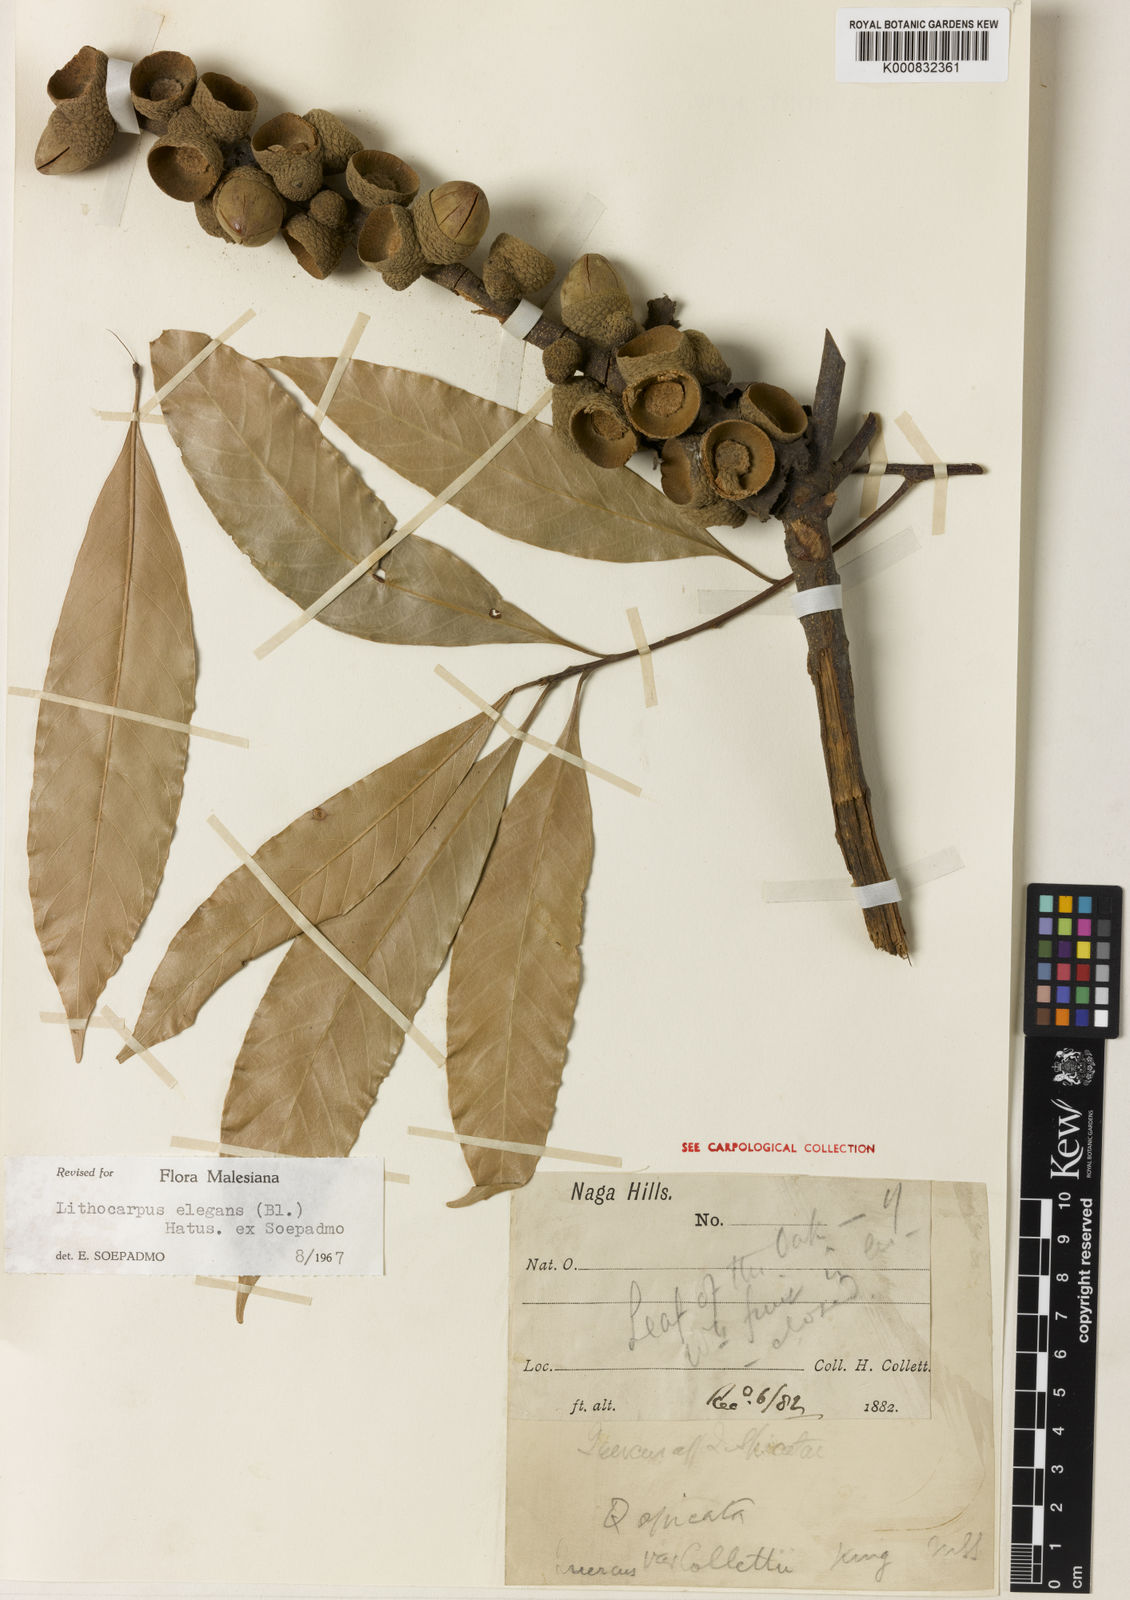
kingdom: Plantae
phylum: Tracheophyta
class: Magnoliopsida
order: Fagales
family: Fagaceae
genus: Lithocarpus
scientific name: Lithocarpus elegans
